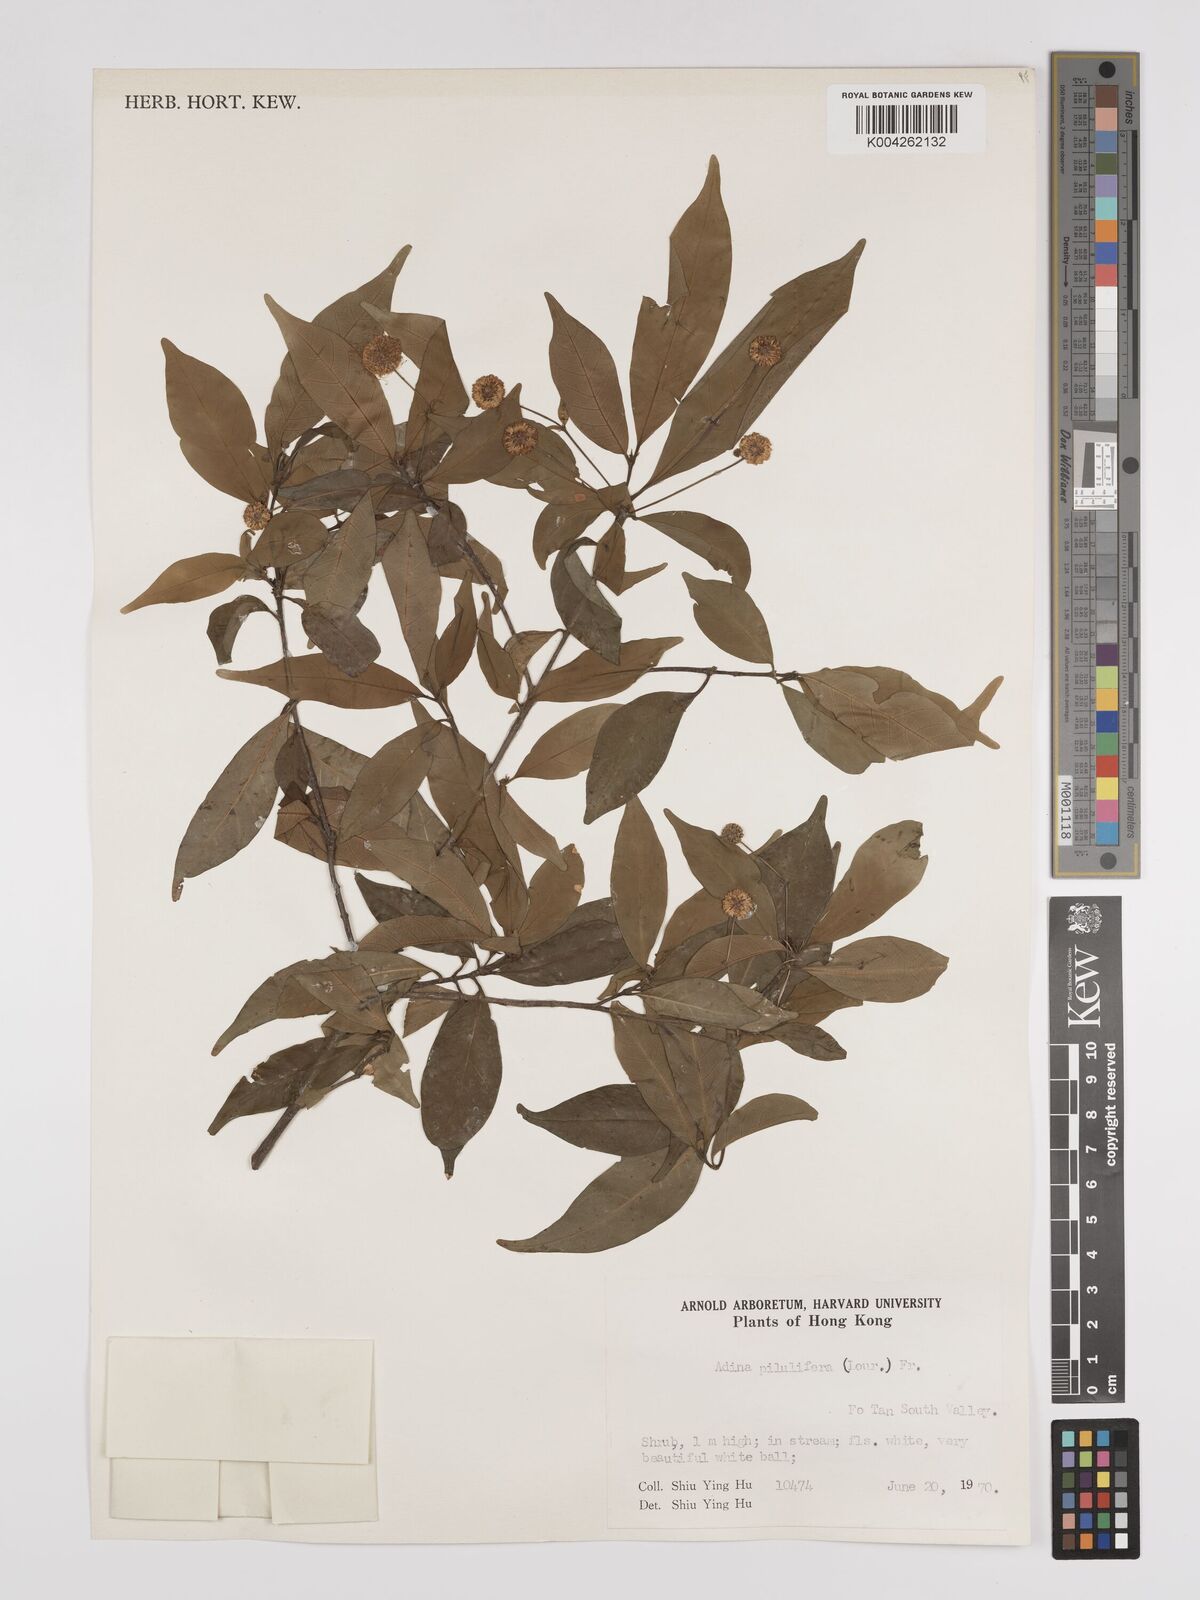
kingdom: Plantae
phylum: Tracheophyta
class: Magnoliopsida
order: Gentianales
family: Rubiaceae
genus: Adina
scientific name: Adina pilulifera
